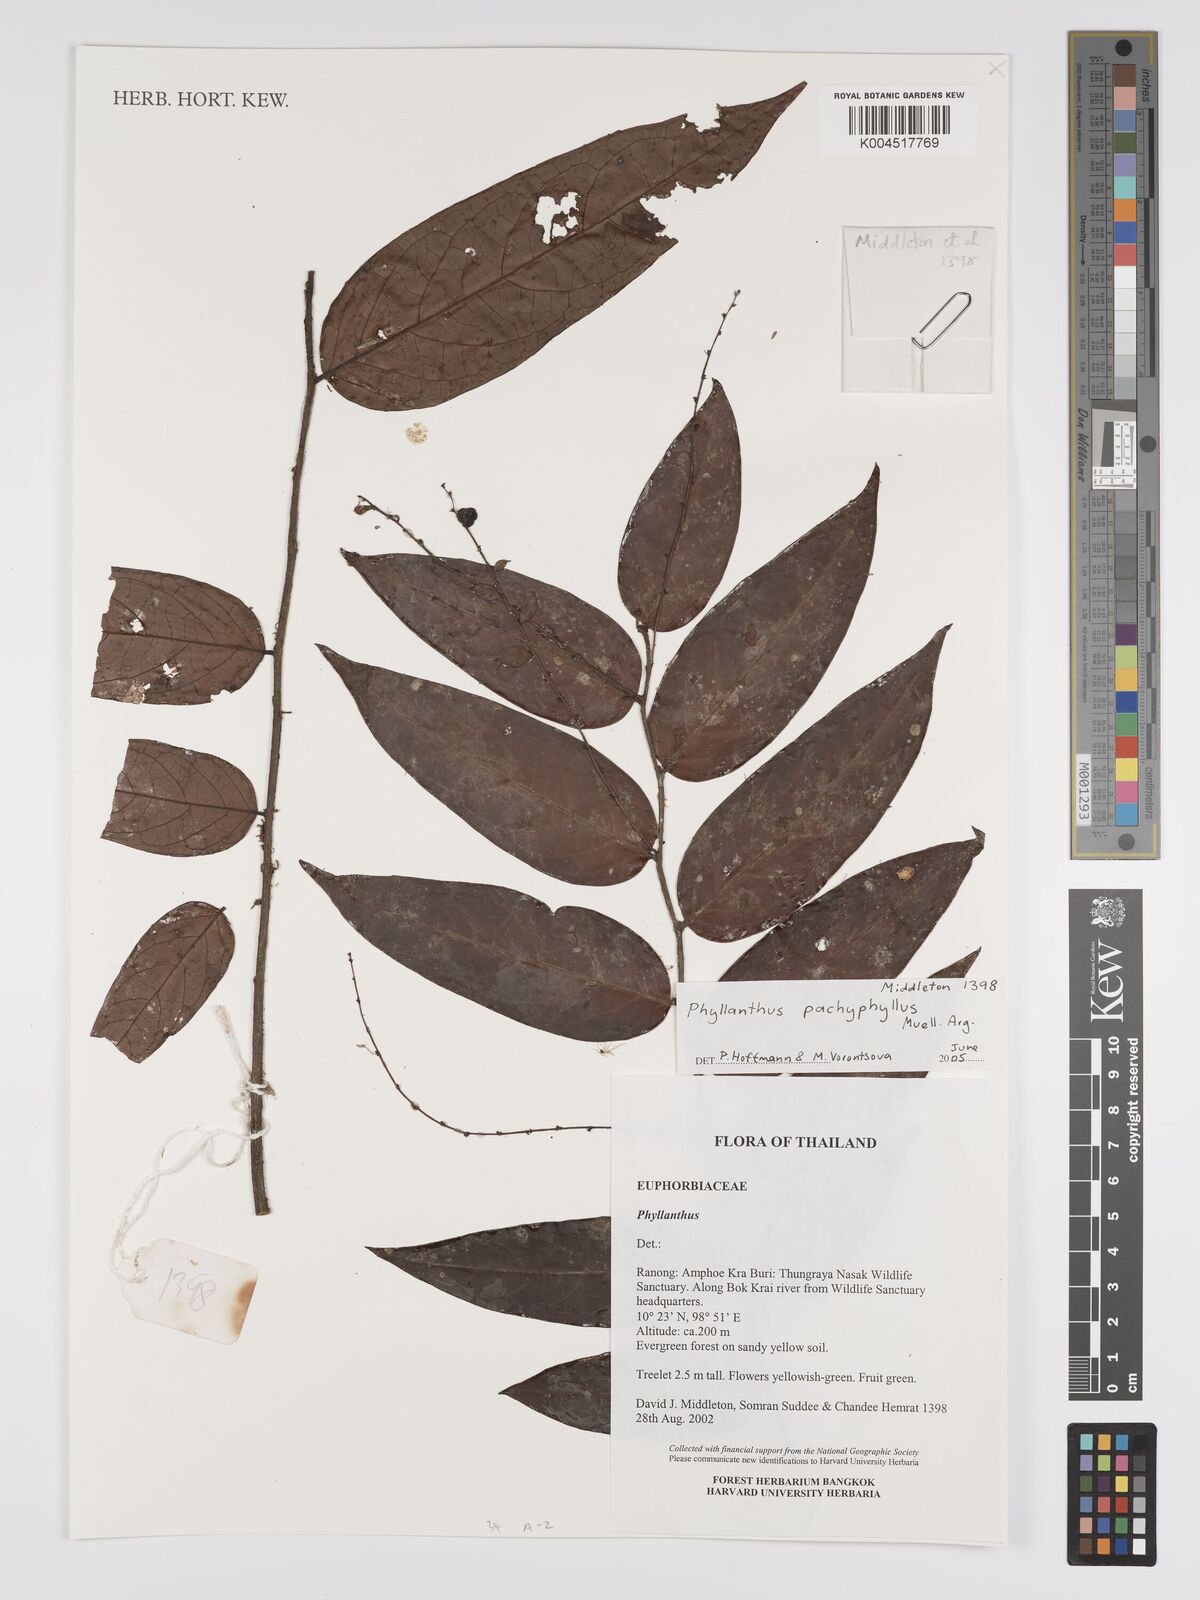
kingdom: Plantae
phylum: Tracheophyta
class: Magnoliopsida
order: Malpighiales
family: Phyllanthaceae
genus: Phyllanthus
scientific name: Phyllanthus pachyphyllus
